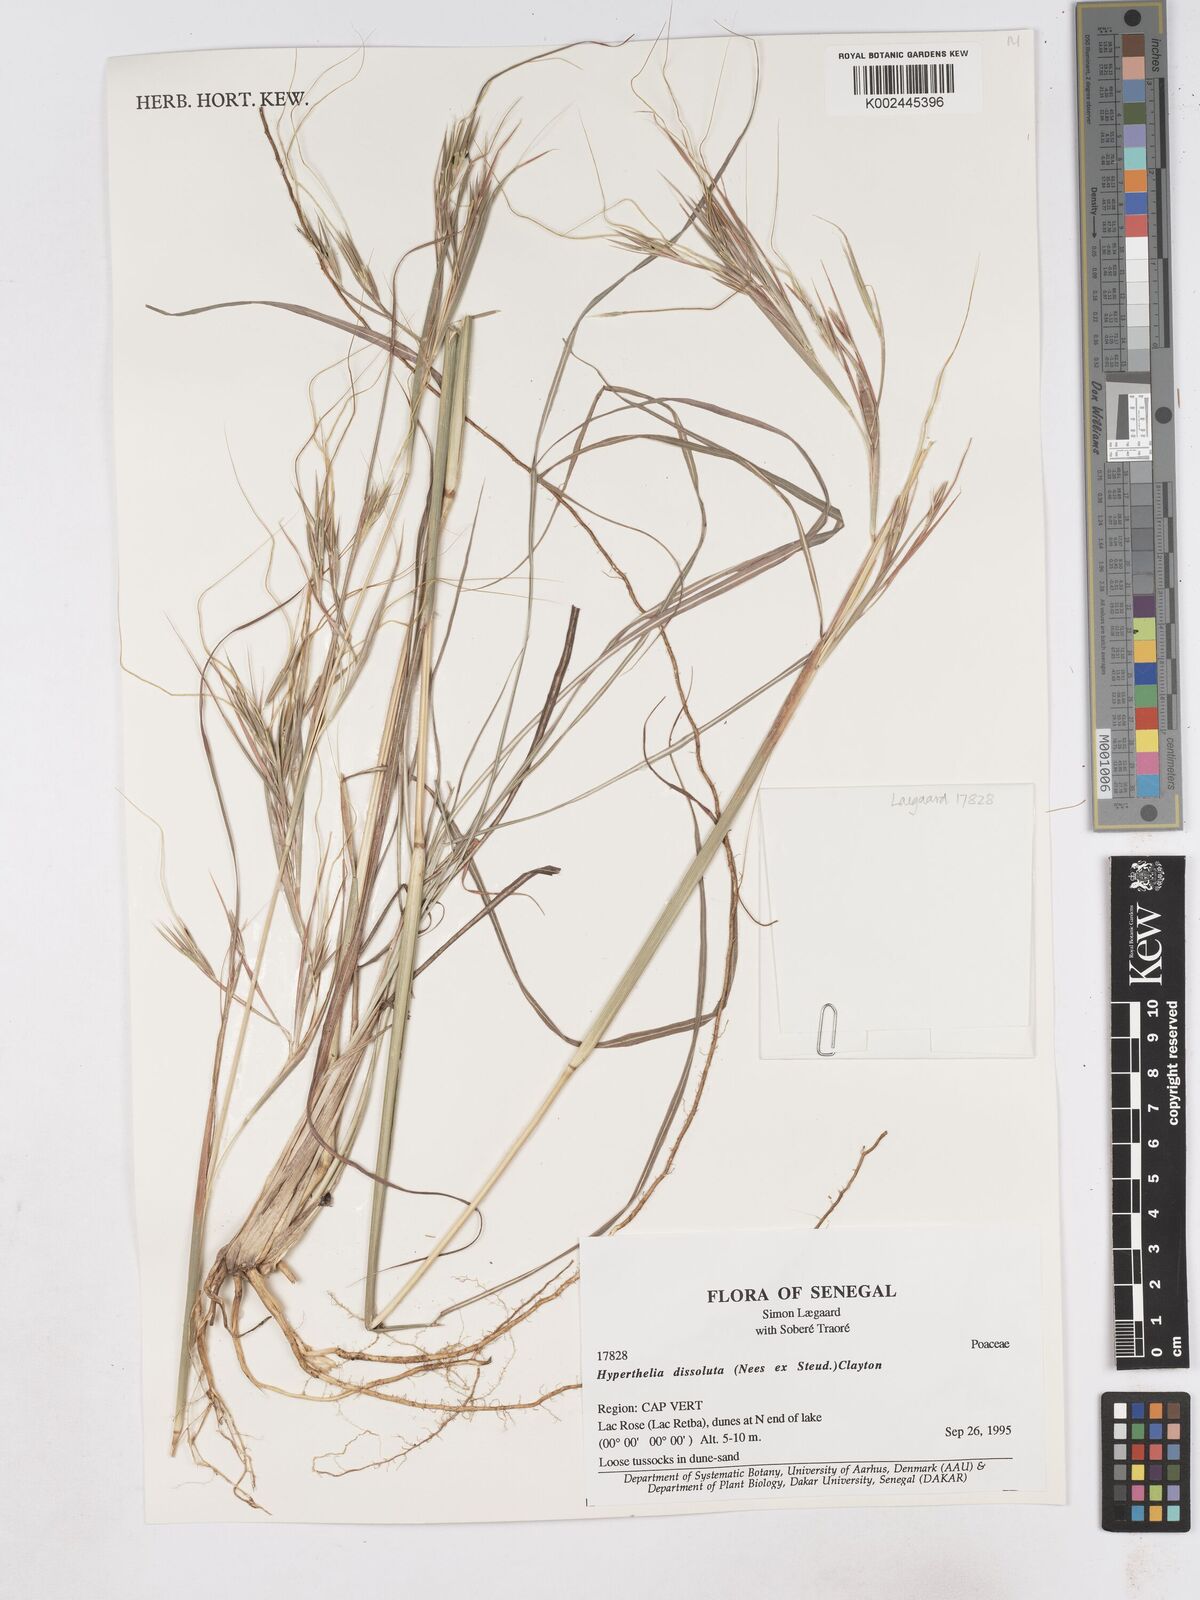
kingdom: Plantae
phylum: Tracheophyta
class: Liliopsida
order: Poales
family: Poaceae
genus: Hyperthelia
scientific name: Hyperthelia dissoluta
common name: Yellow thatching grass
